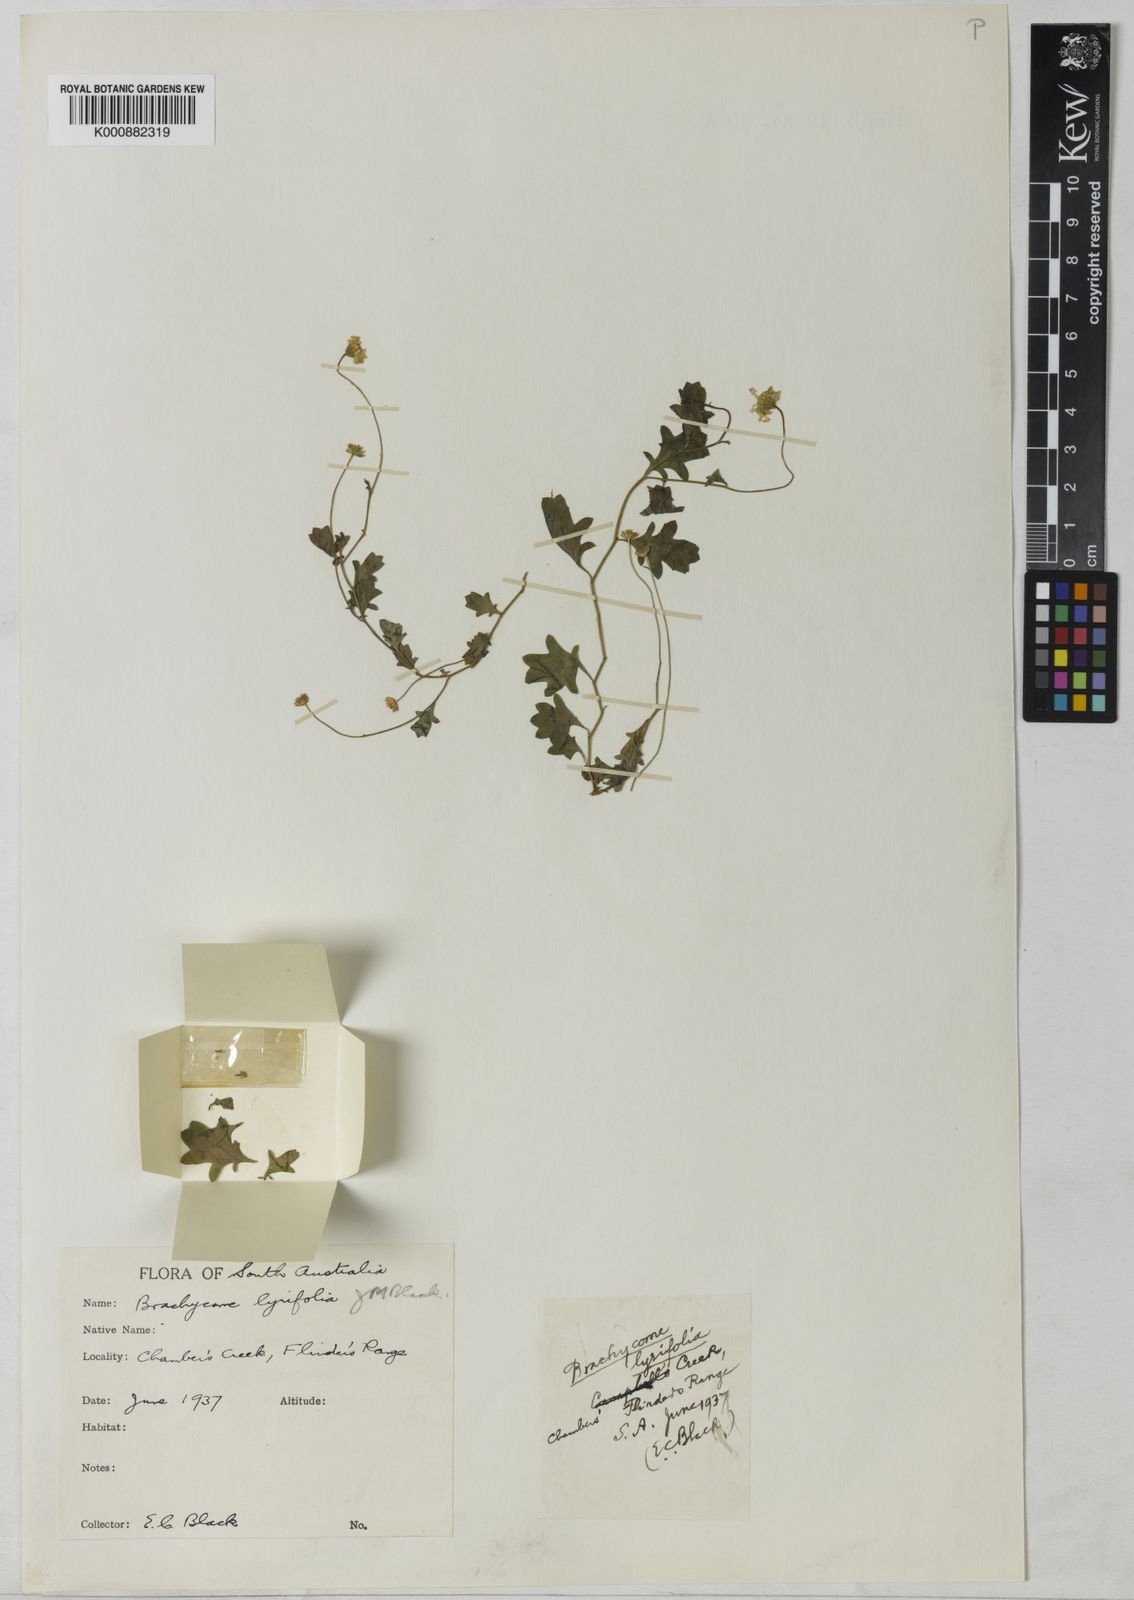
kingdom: Plantae
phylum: Tracheophyta
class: Magnoliopsida
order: Asterales
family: Asteraceae
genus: Brachyscome
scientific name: Brachyscome ciliaris
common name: Variable daisy
